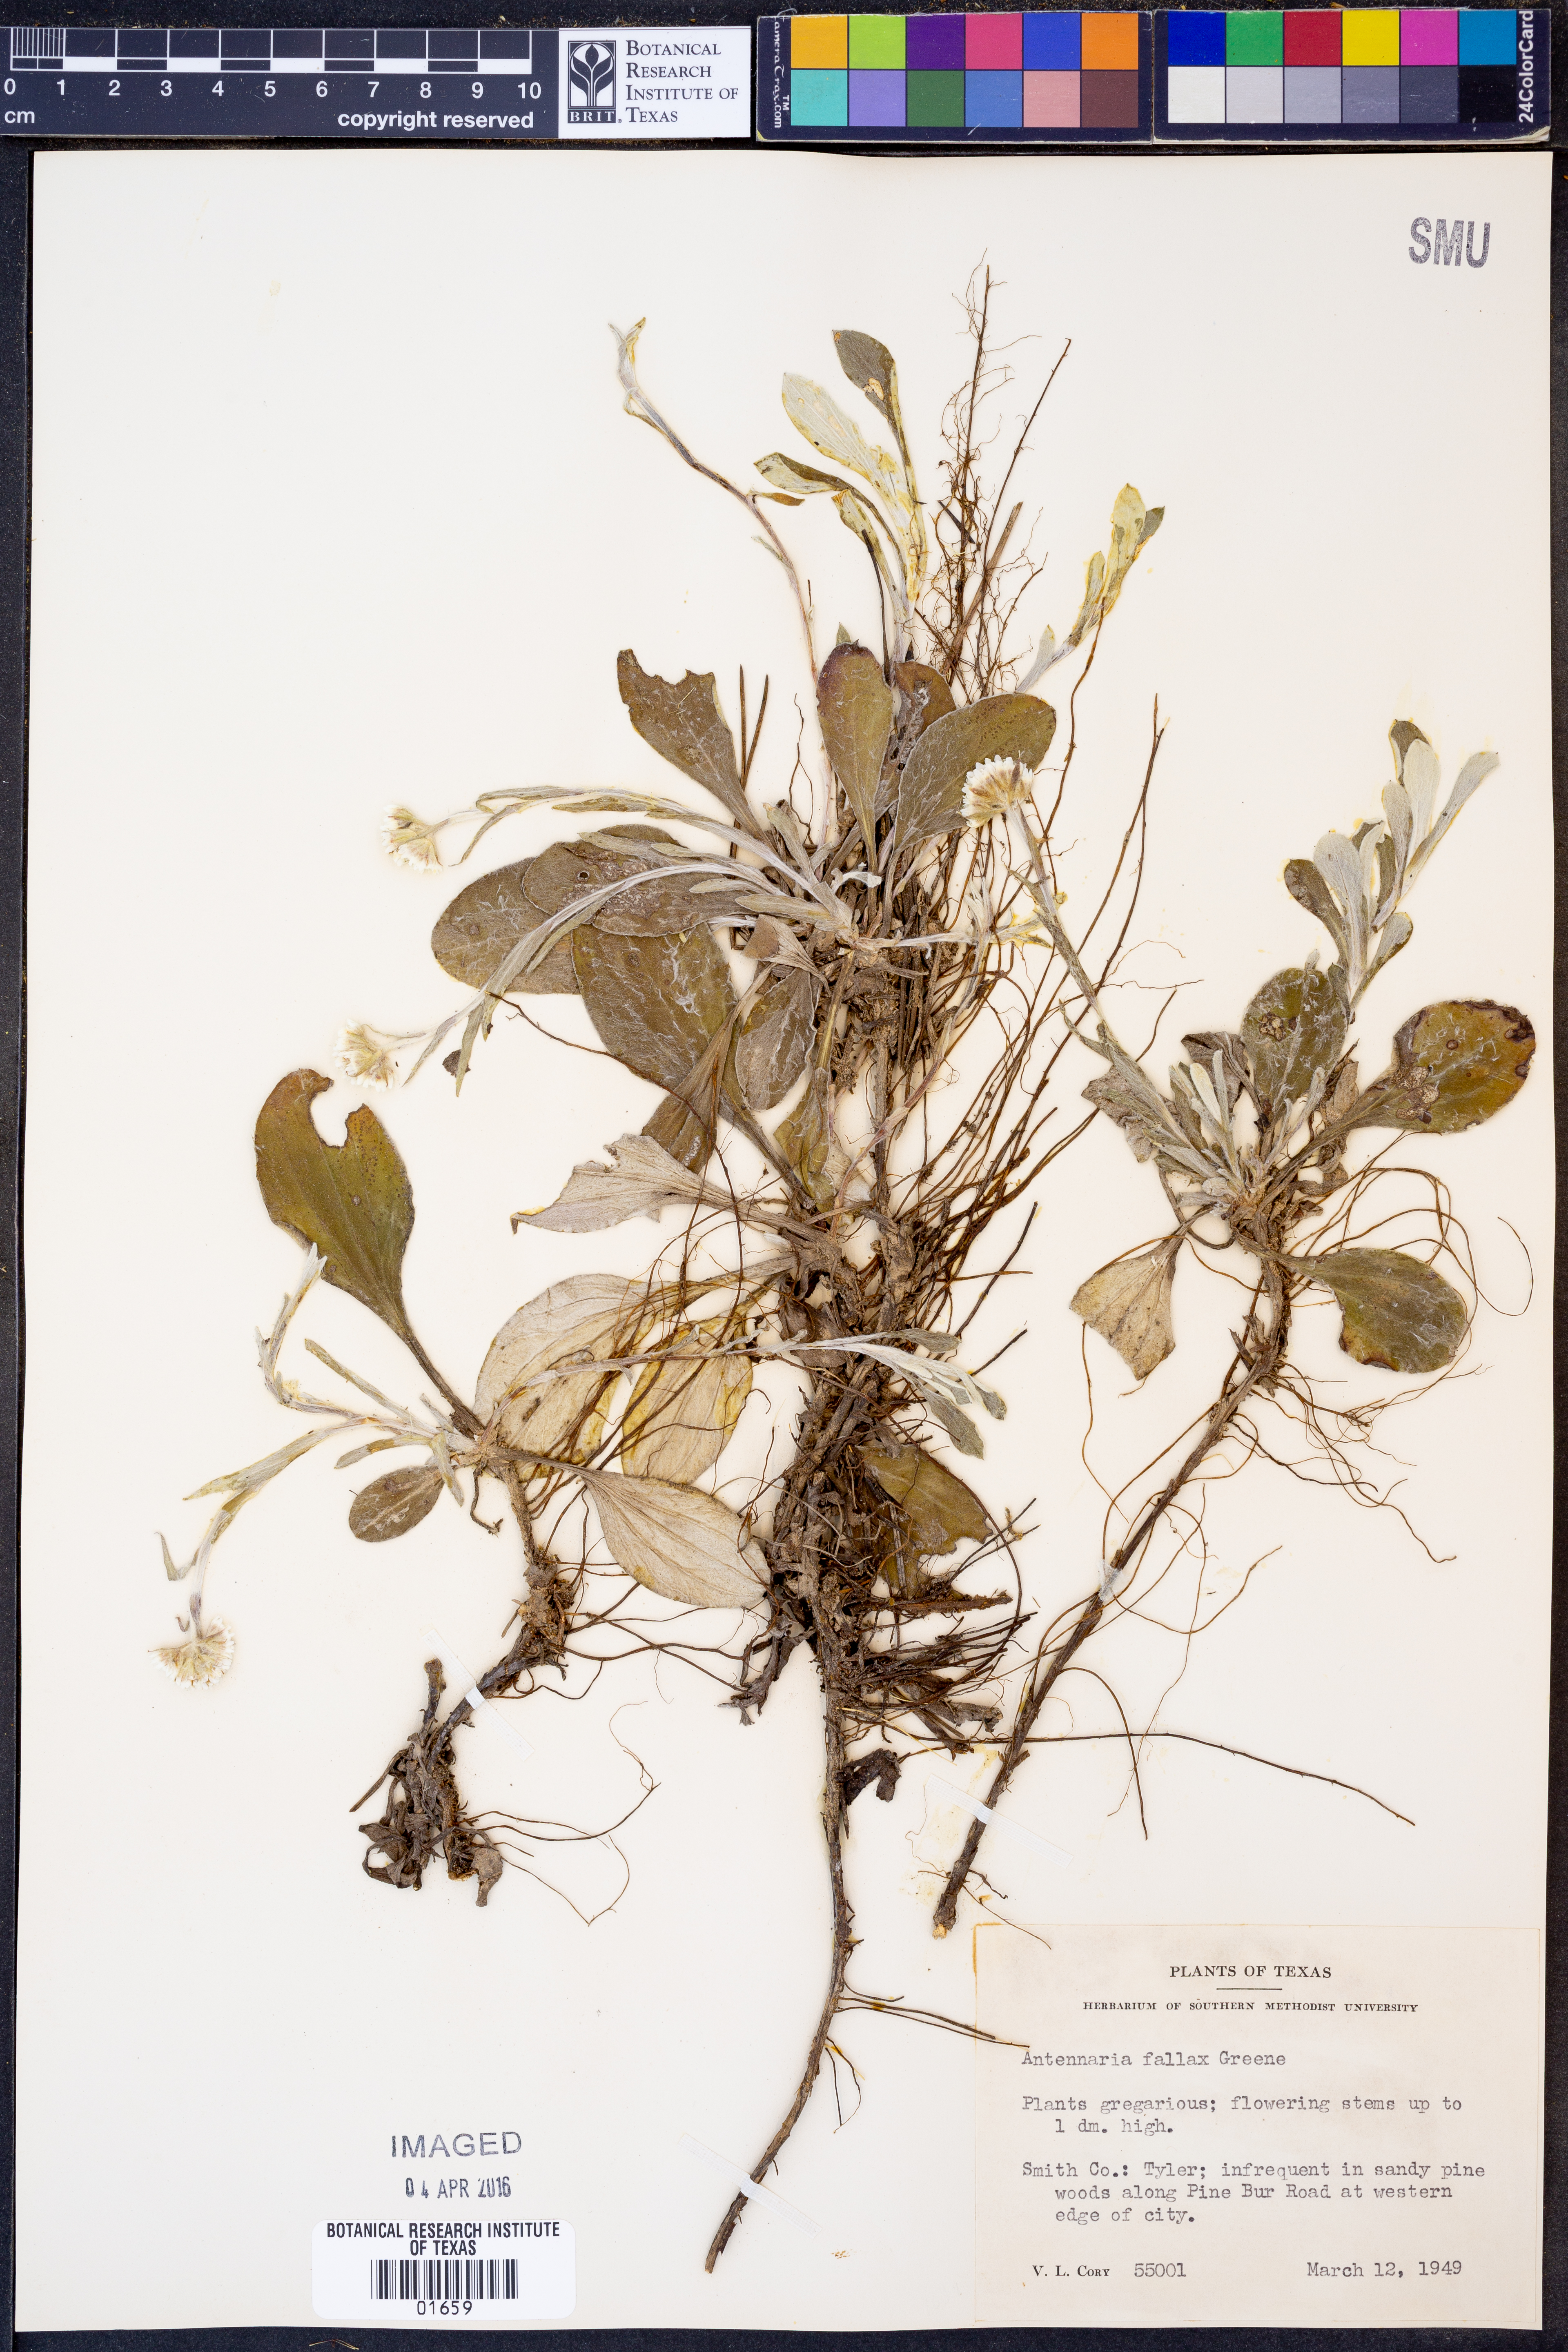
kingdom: Plantae
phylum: Tracheophyta
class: Magnoliopsida
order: Asterales
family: Asteraceae
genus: Antennaria
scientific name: Antennaria parlinii
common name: Parlin's pussytoes
